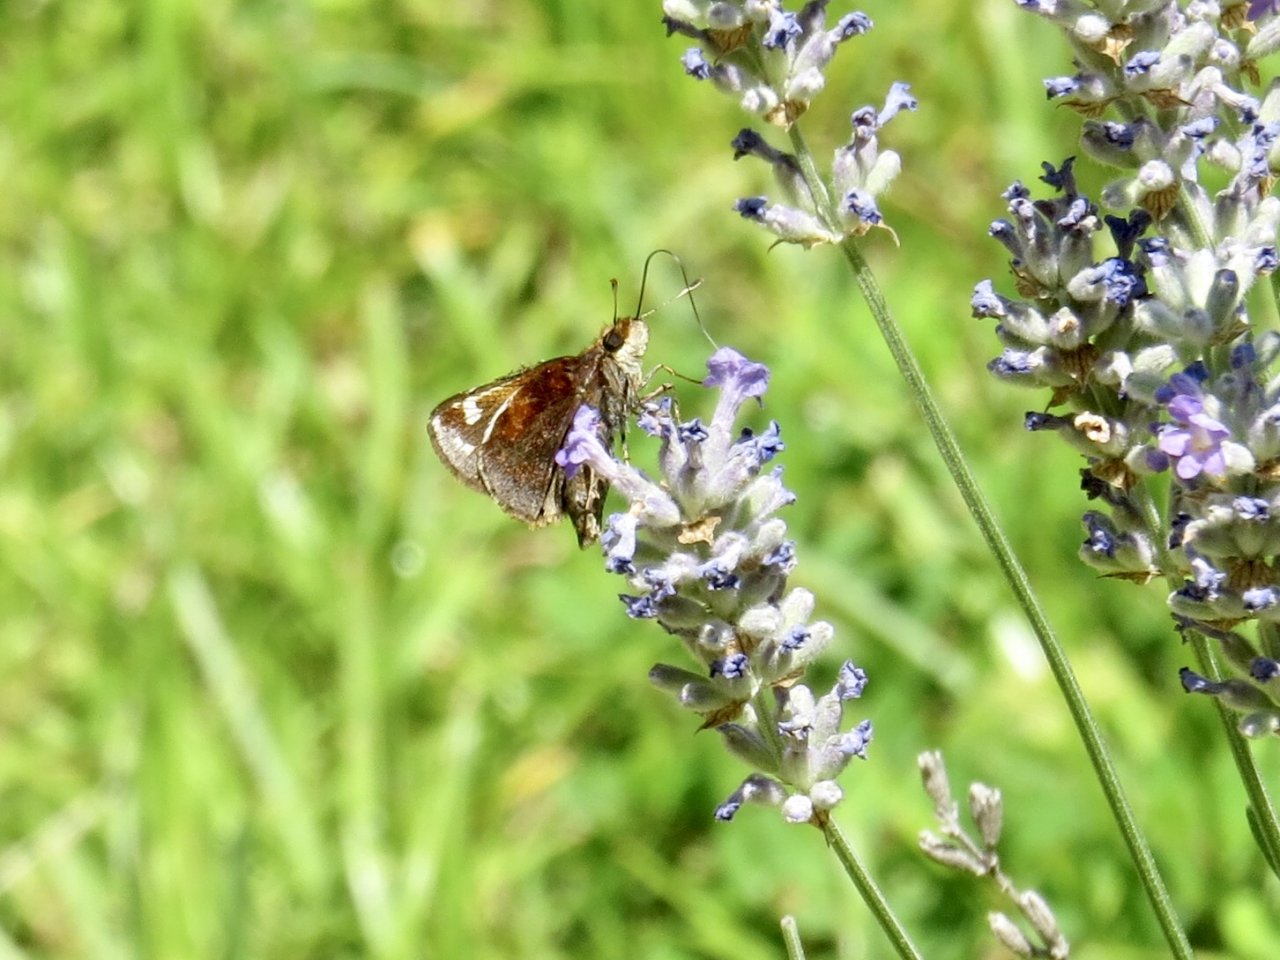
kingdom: Animalia
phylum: Arthropoda
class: Insecta
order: Lepidoptera
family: Hesperiidae
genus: Lon
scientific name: Lon zabulon
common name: Zabulon Skipper
